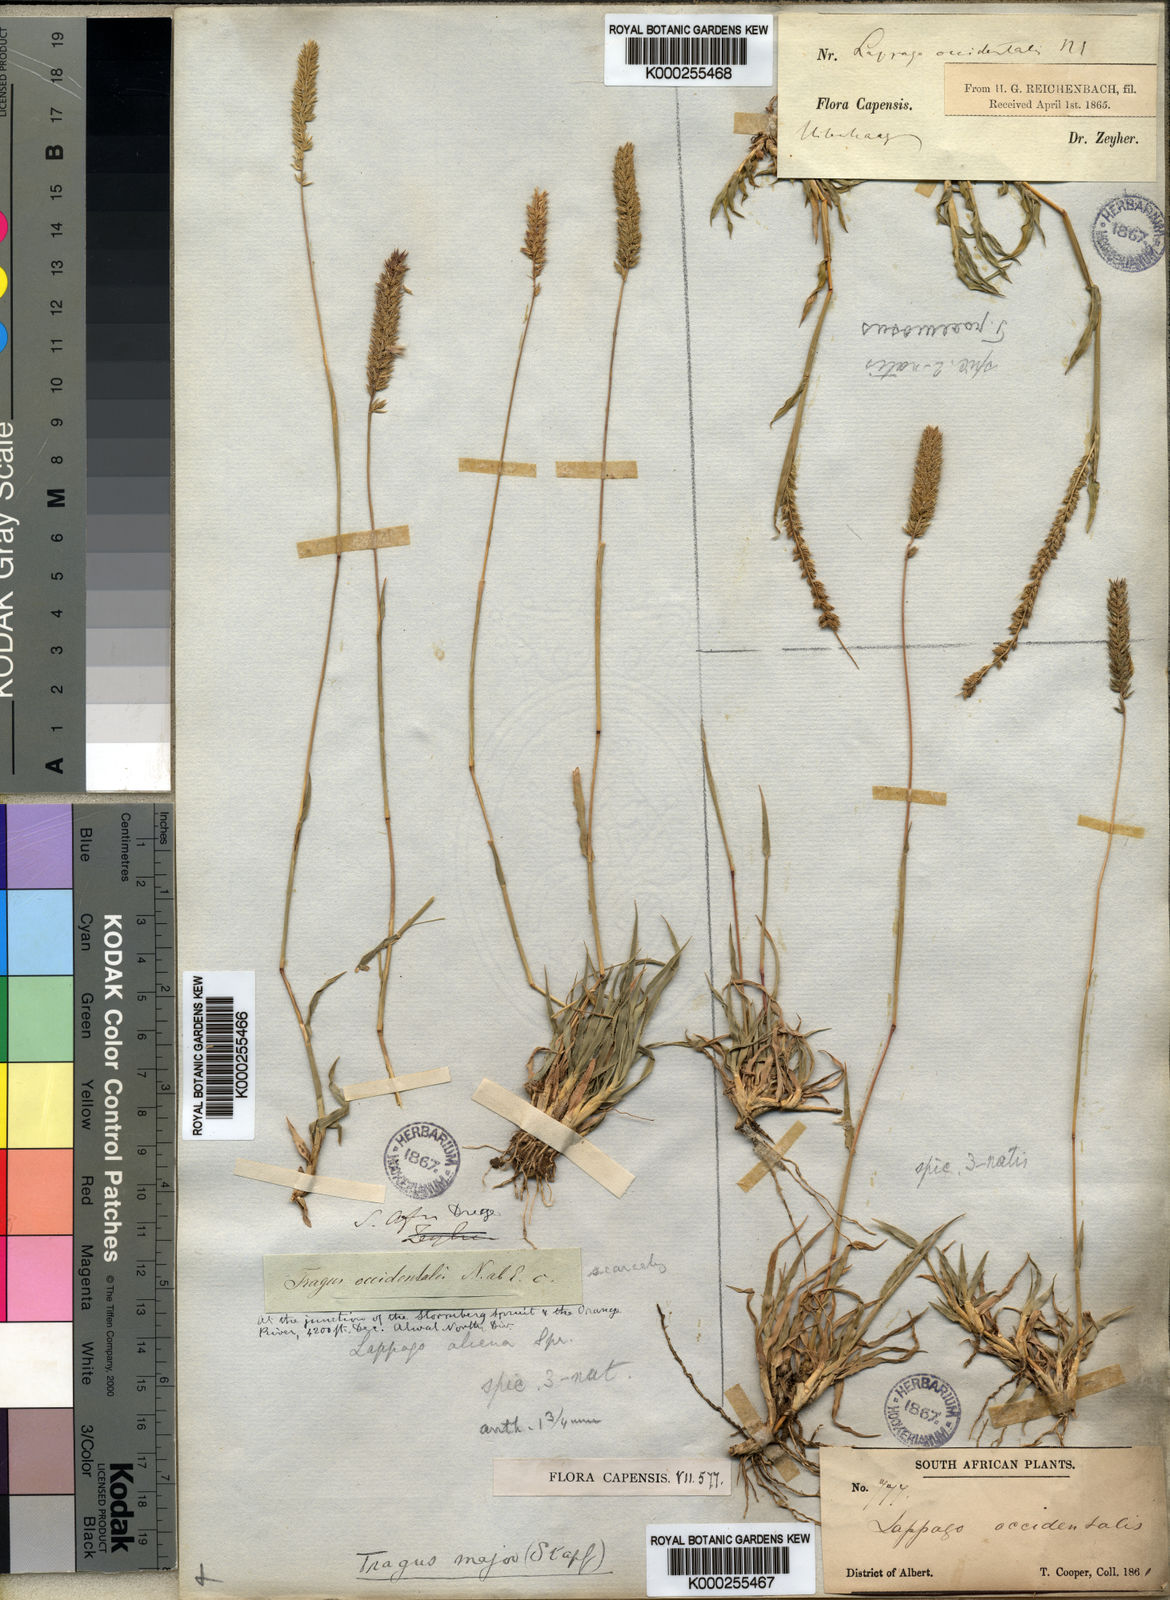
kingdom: Plantae
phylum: Tracheophyta
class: Liliopsida
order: Poales
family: Poaceae
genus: Tragus
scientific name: Tragus koelerioides
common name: Creeping carrot-seed grass
